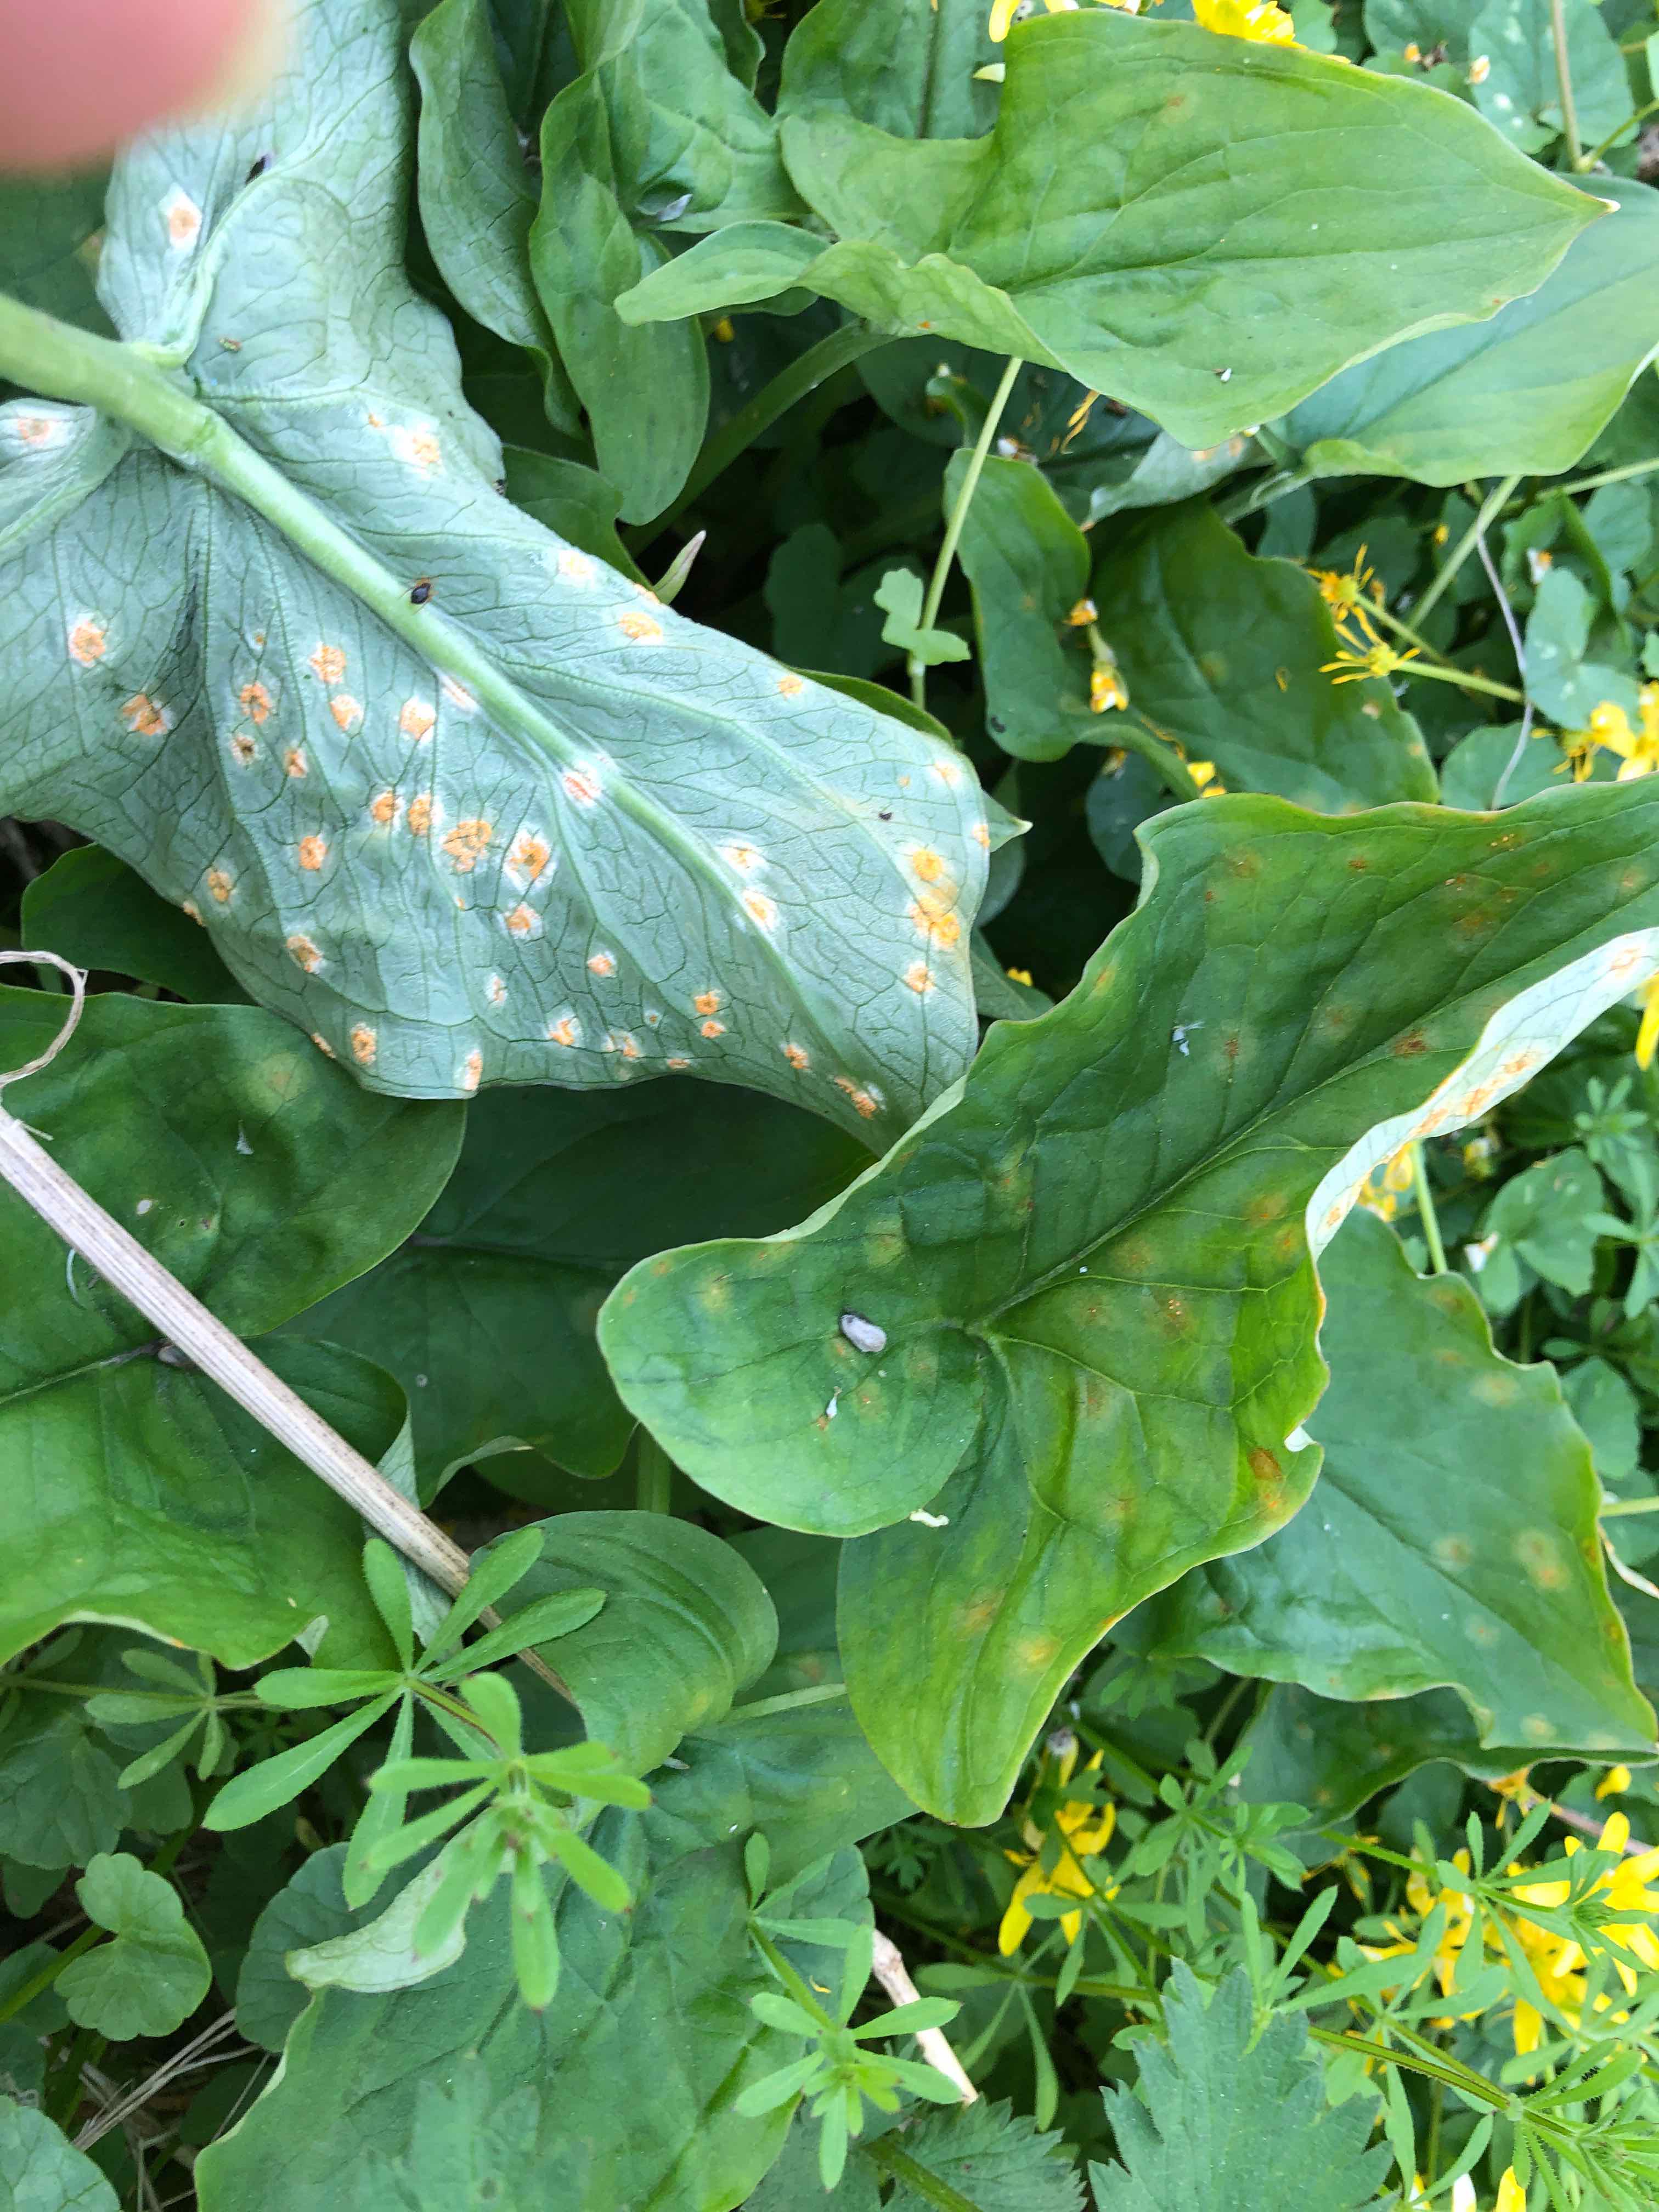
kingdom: Fungi
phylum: Basidiomycota
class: Pucciniomycetes
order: Pucciniales
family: Pucciniaceae
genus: Puccinia
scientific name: Puccinia sessilis
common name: Arum rust
